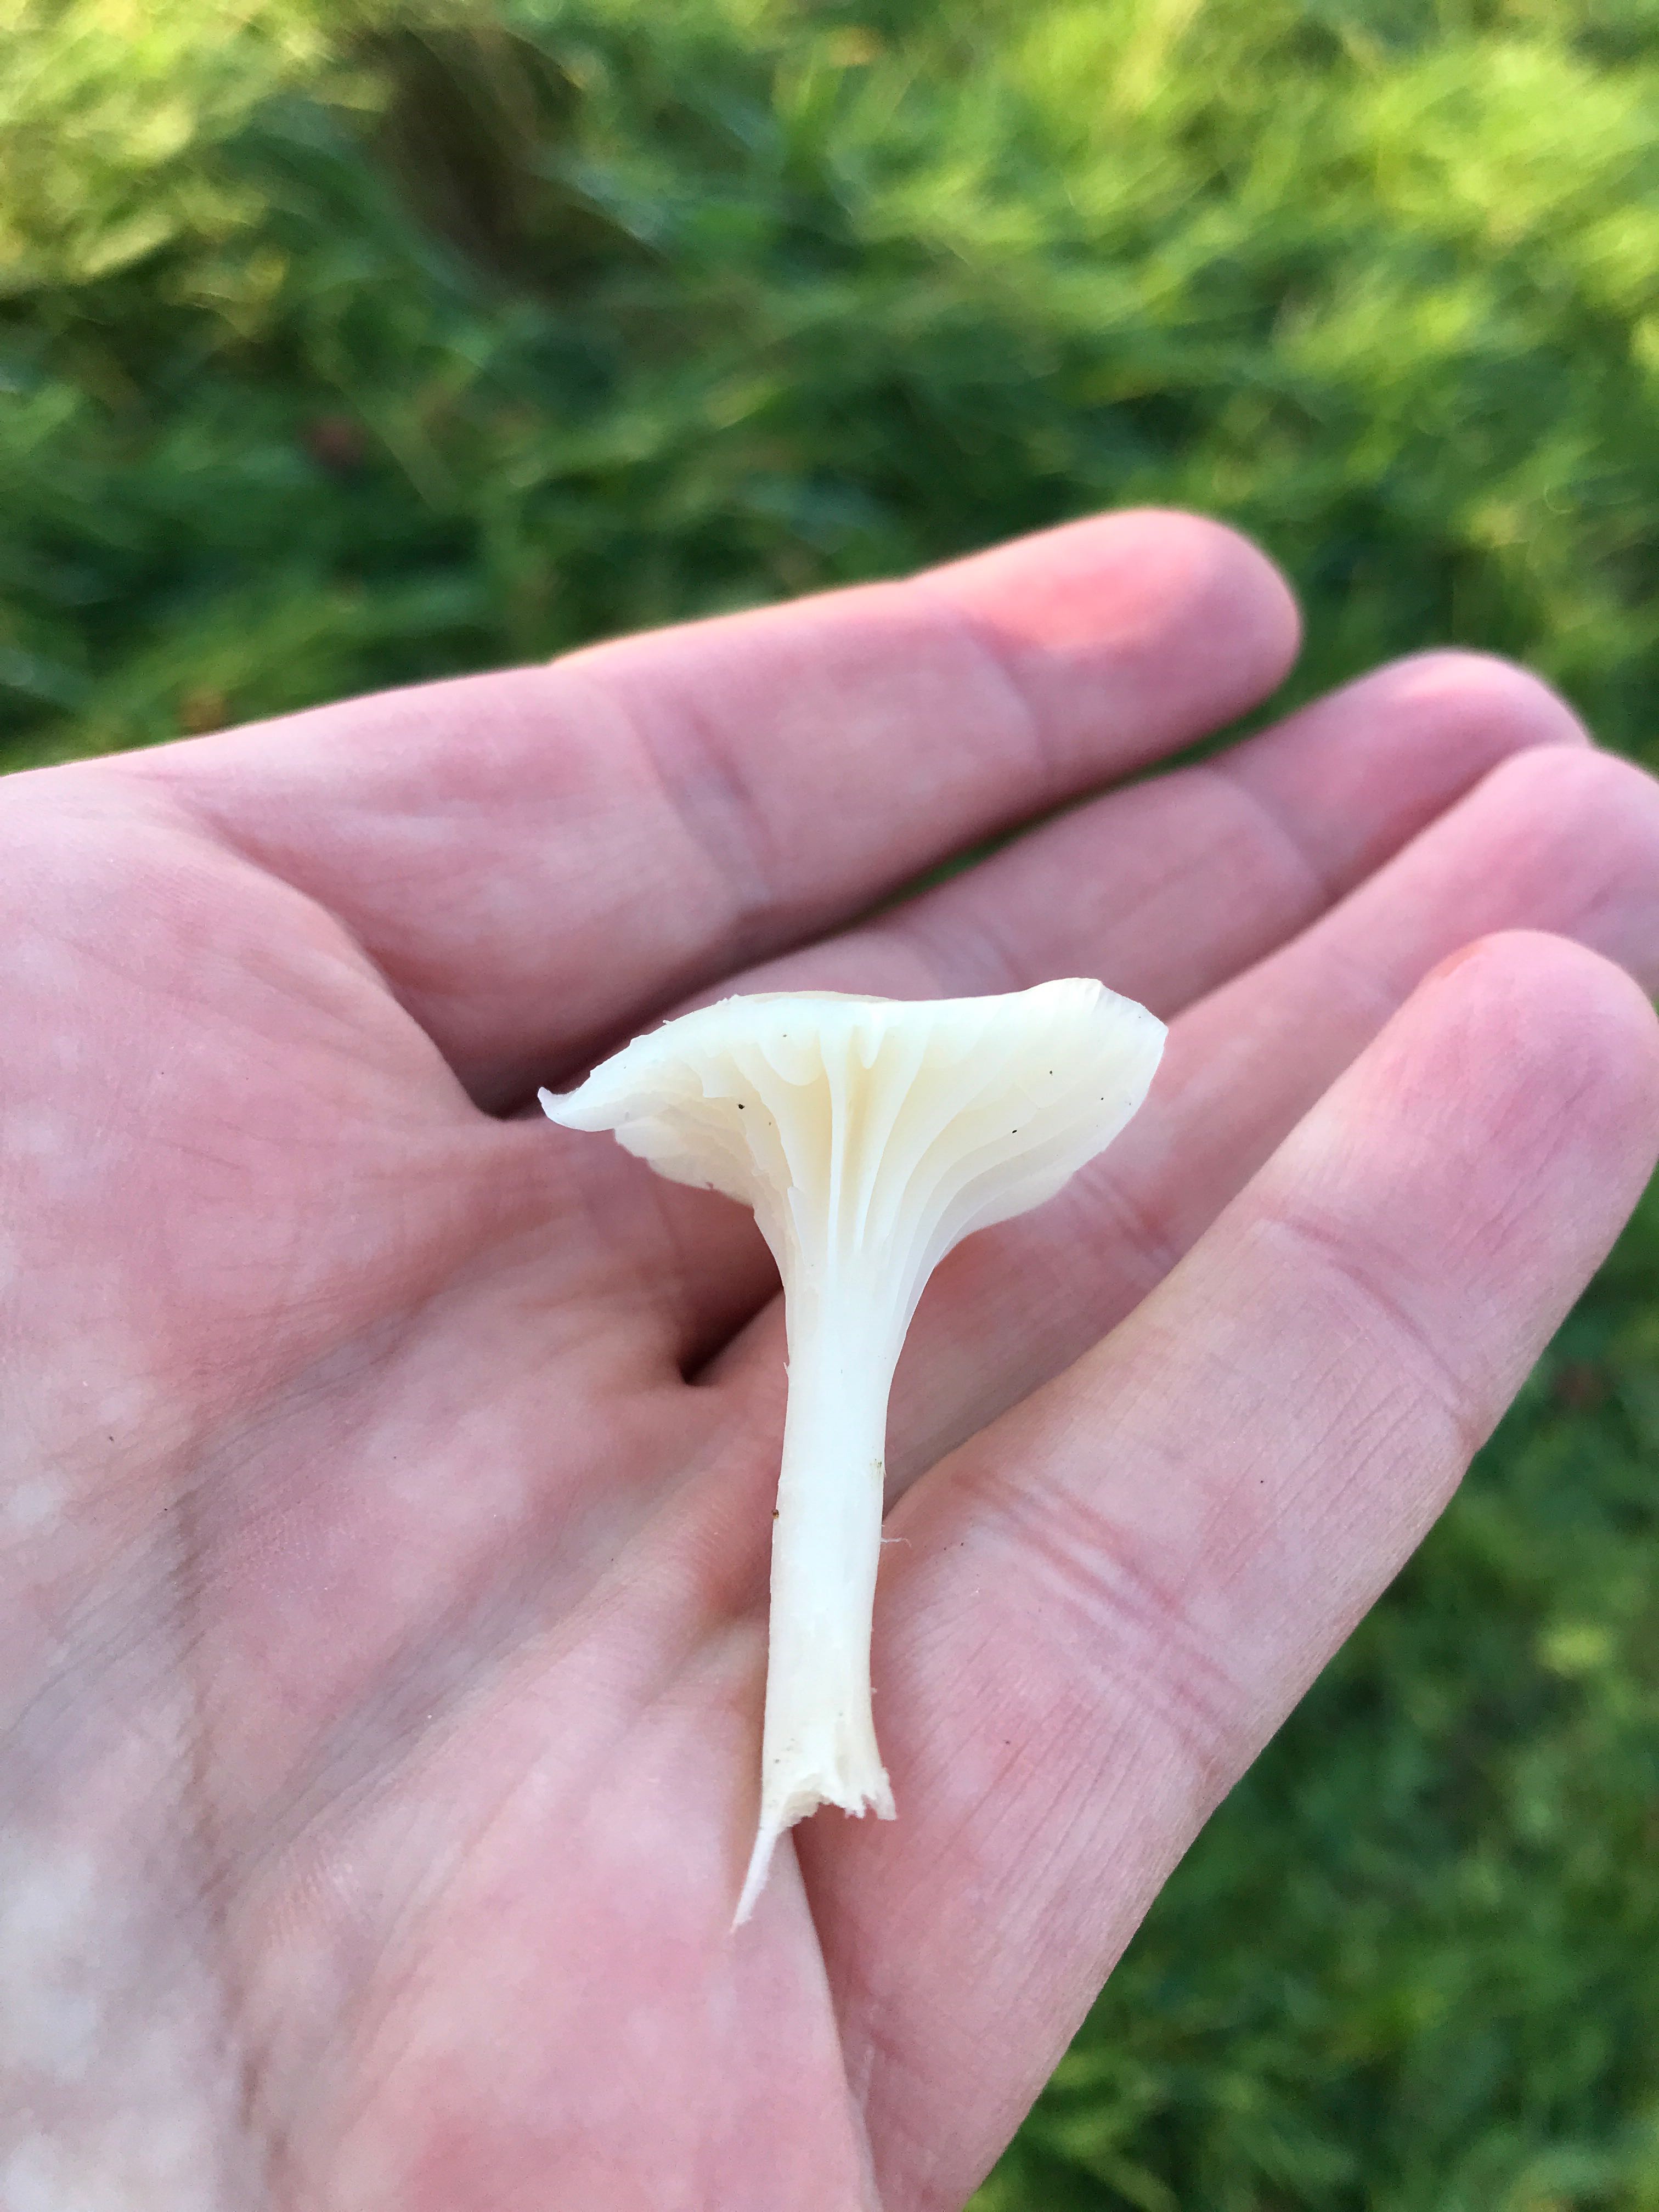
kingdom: Fungi
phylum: Basidiomycota
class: Agaricomycetes
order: Agaricales
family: Hygrophoraceae
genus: Cuphophyllus
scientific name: Cuphophyllus virgineus
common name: snehvid vokshat
